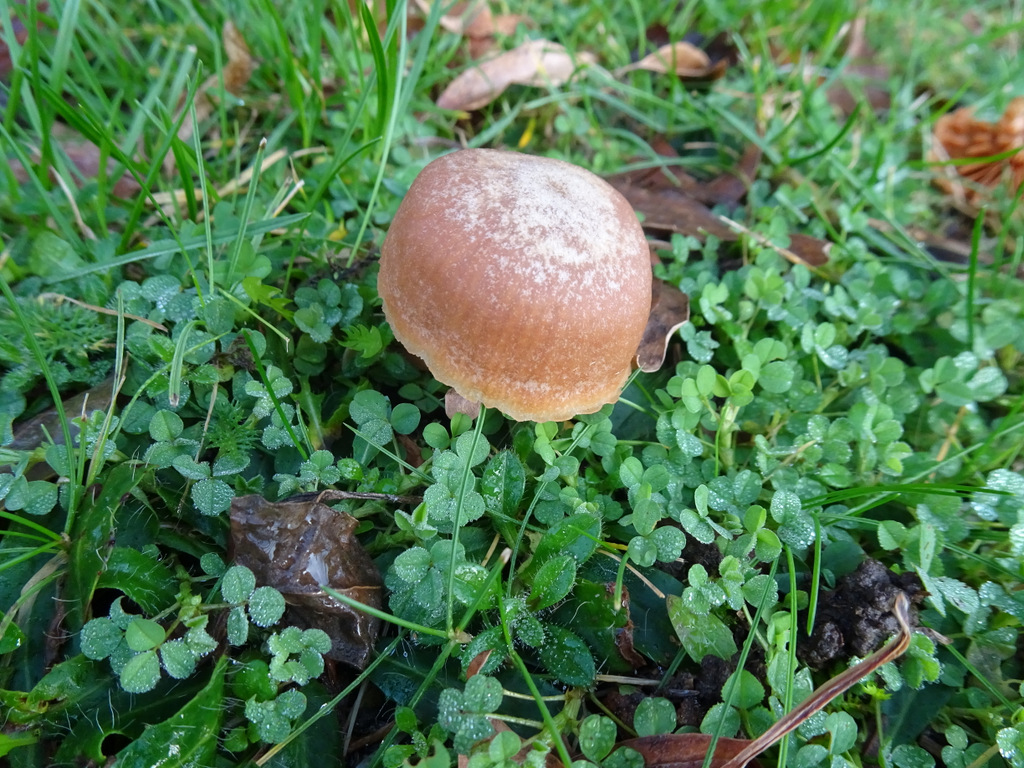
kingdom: Fungi
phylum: Basidiomycota
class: Agaricomycetes
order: Agaricales
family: Tubariaceae
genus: Tubaria
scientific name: Tubaria furfuracea
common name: kliddet fnughat
